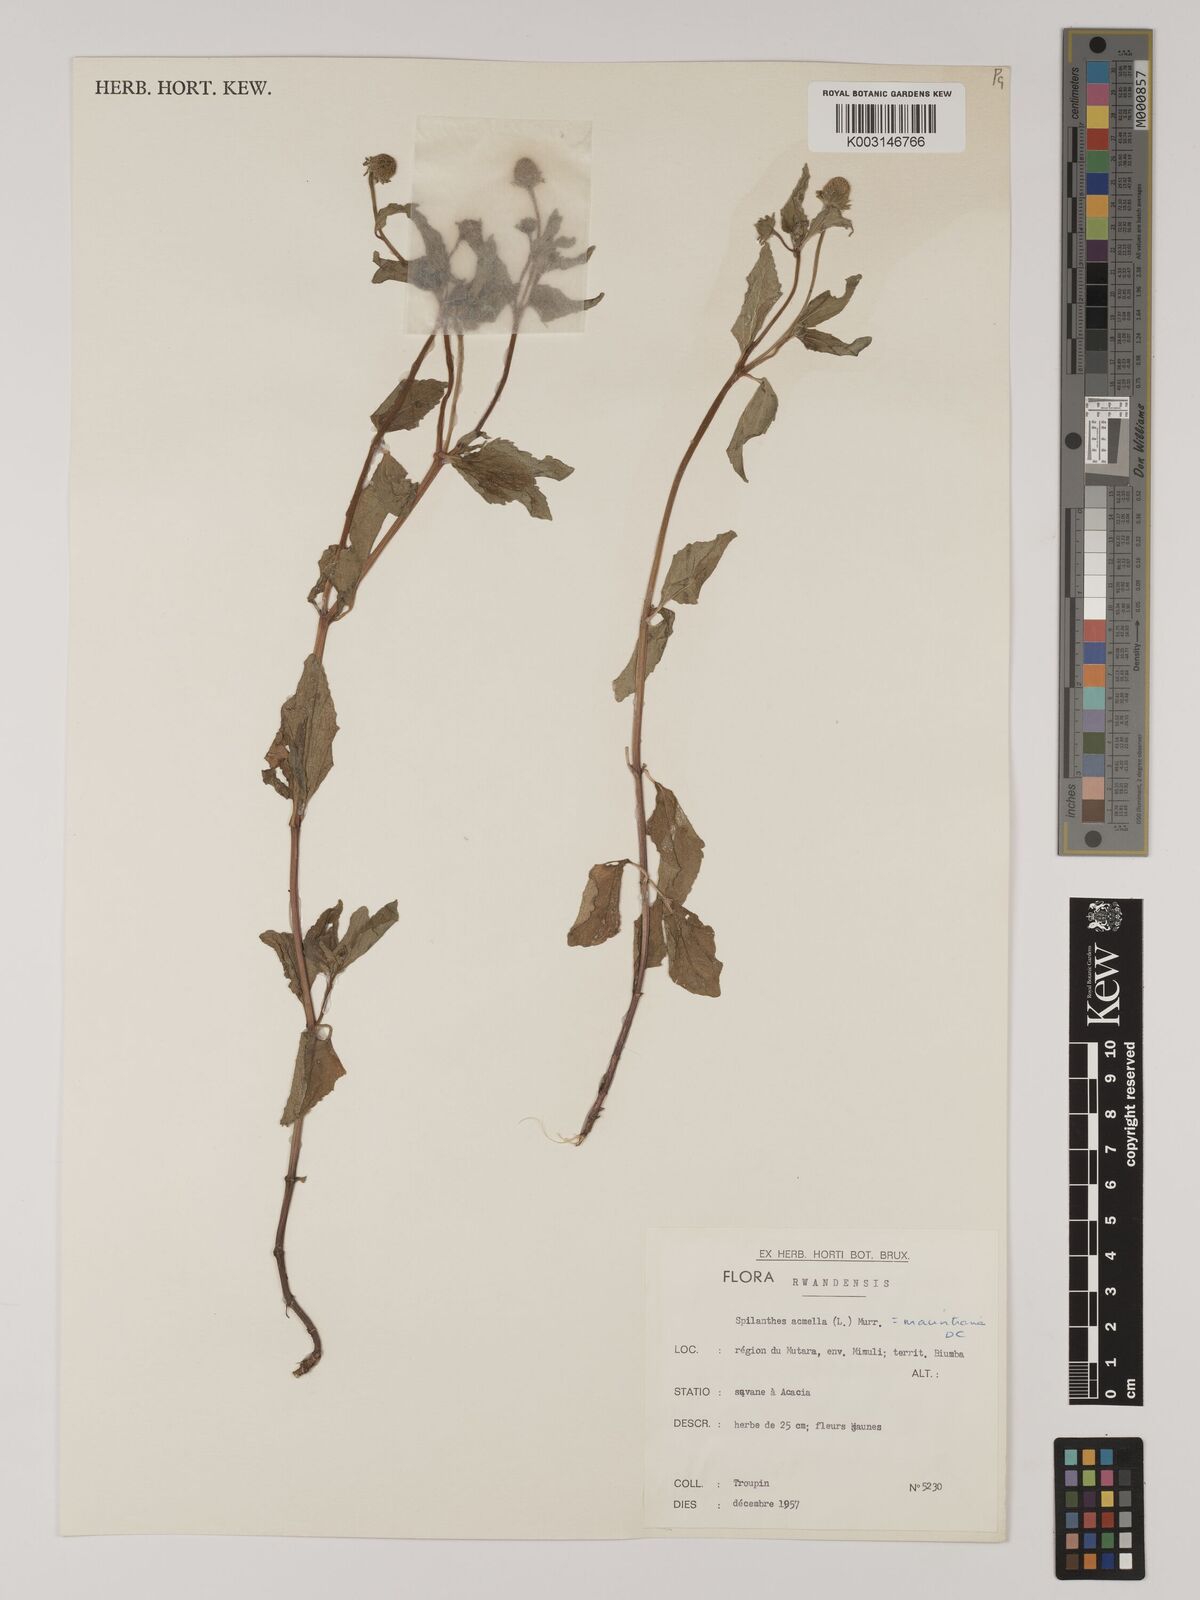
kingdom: Plantae
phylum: Tracheophyta
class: Magnoliopsida
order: Asterales
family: Asteraceae
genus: Blainvillea
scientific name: Blainvillea acmella
